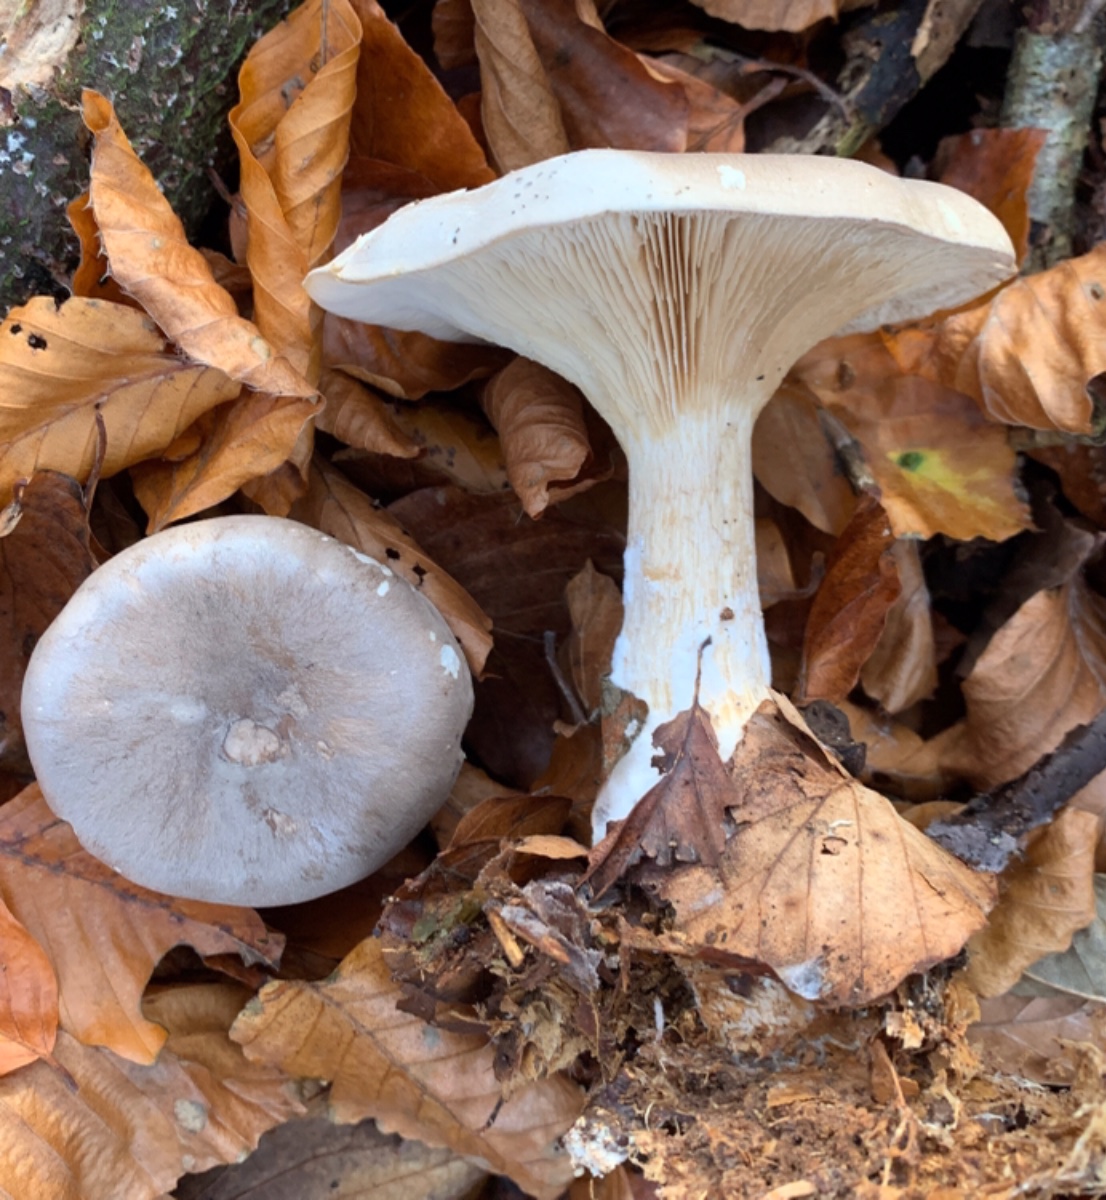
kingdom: Fungi
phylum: Basidiomycota
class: Agaricomycetes
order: Agaricales
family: Tricholomataceae
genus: Clitocybe
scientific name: Clitocybe nebularis
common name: tåge-tragthat
